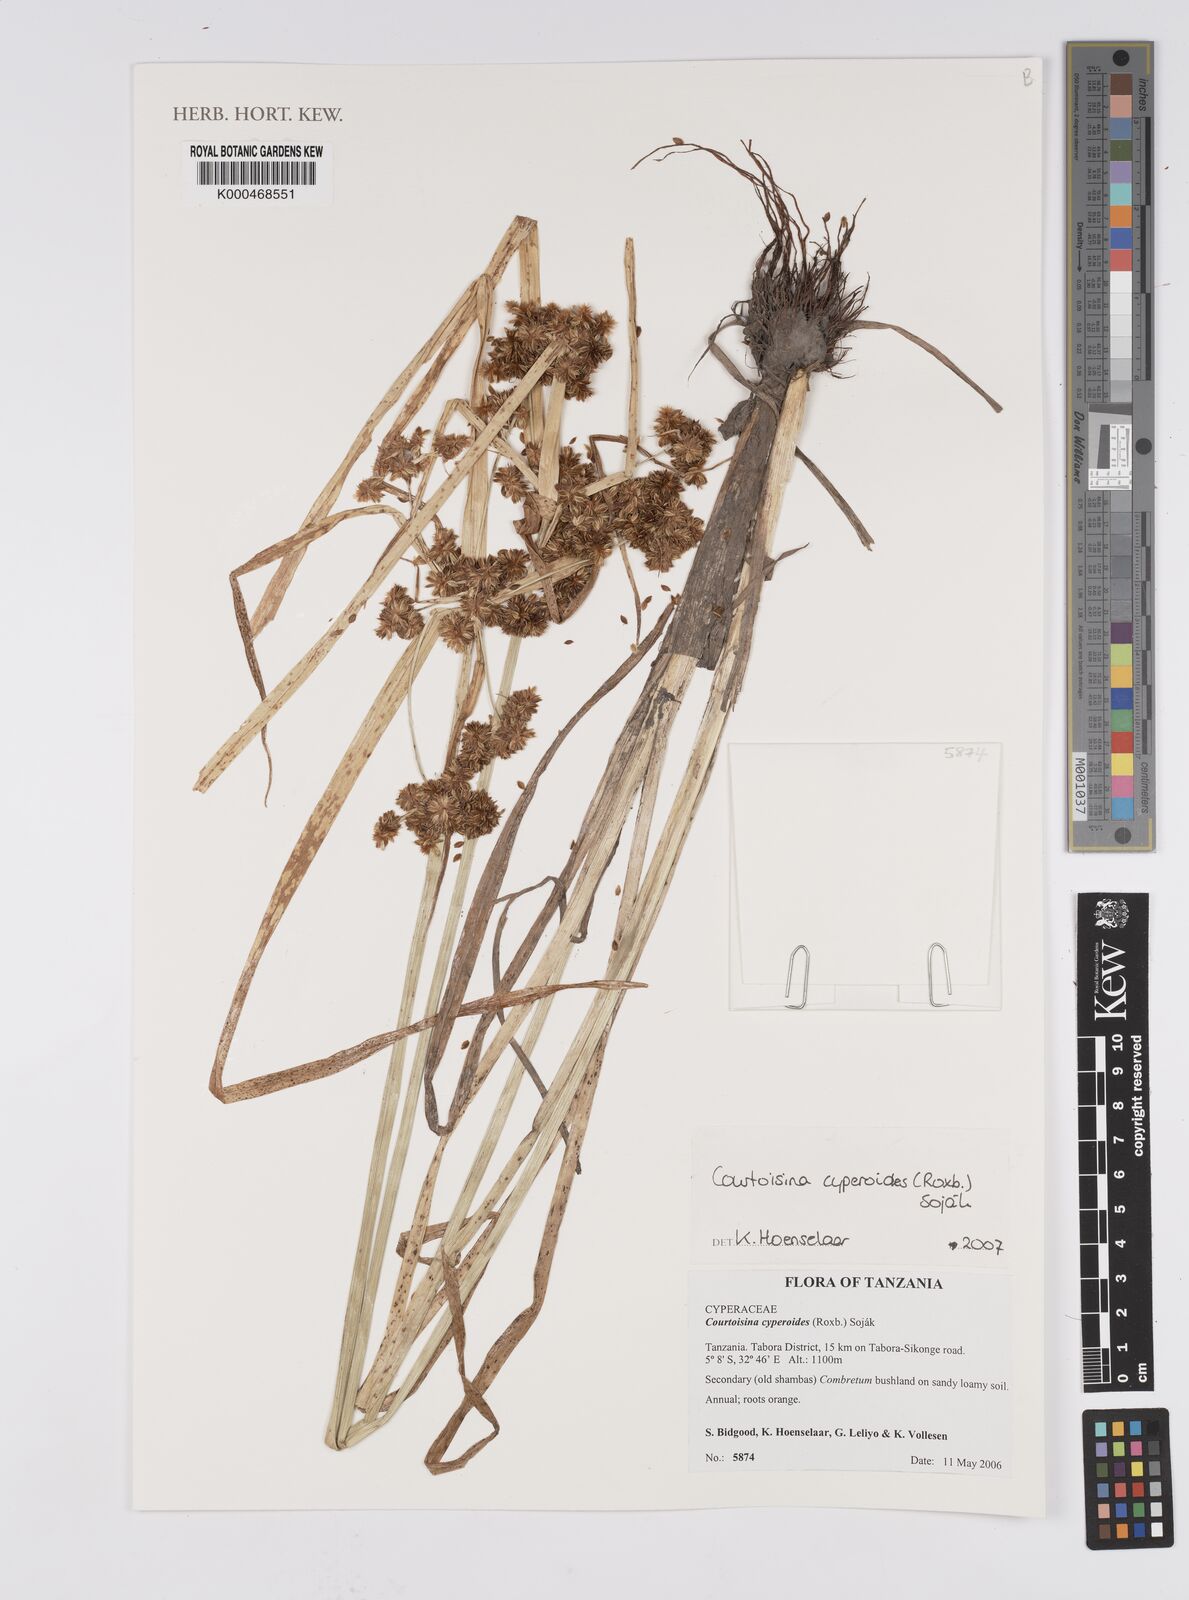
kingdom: Plantae
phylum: Tracheophyta
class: Liliopsida
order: Poales
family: Cyperaceae
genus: Cyperus
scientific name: Cyperus
